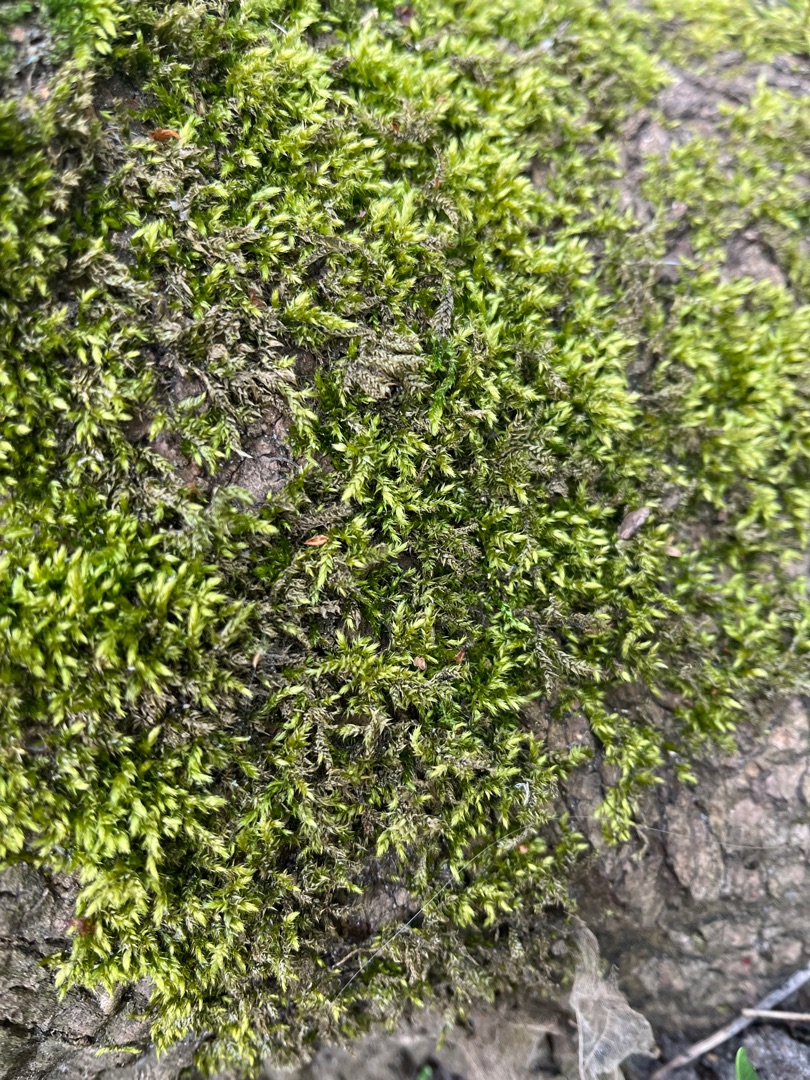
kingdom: Plantae
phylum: Bryophyta
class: Bryopsida
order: Hypnales
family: Brachytheciaceae
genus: Brachythecium
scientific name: Brachythecium rutabulum
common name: Almindelig kortkapsel
